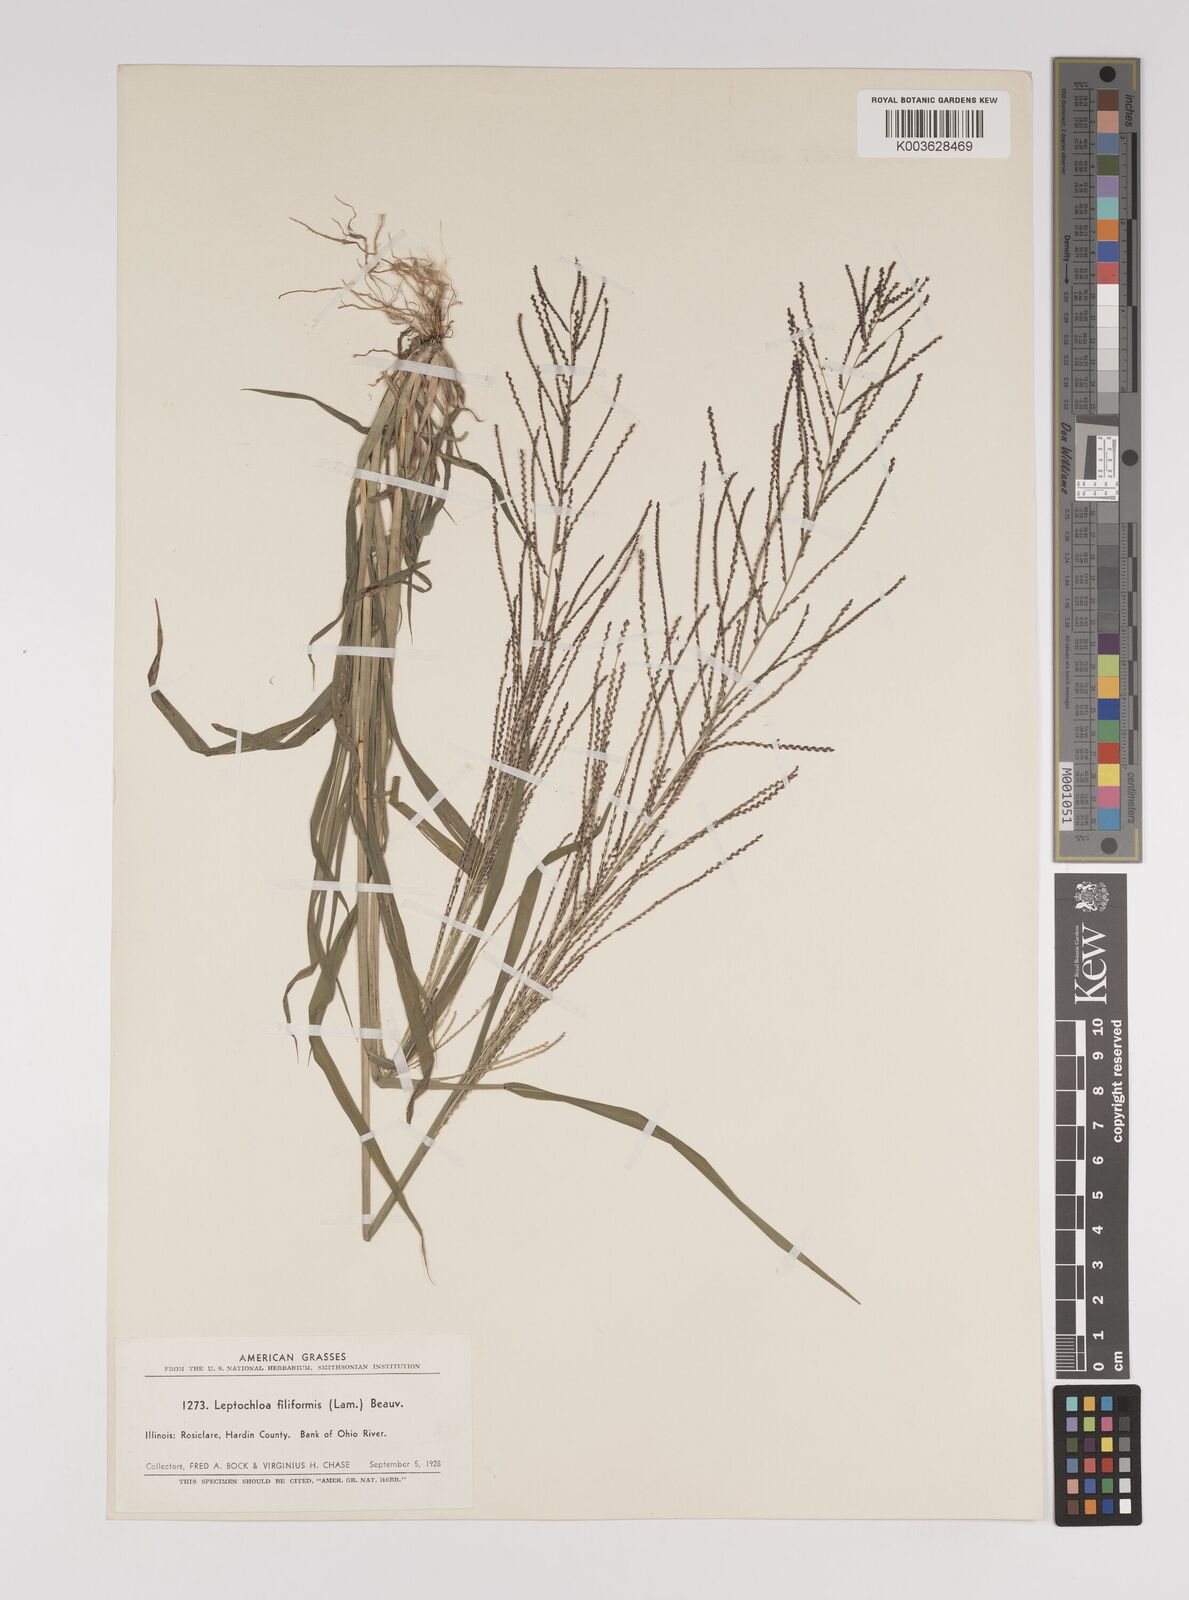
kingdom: Plantae
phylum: Tracheophyta
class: Liliopsida
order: Poales
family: Poaceae
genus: Leptochloa
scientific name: Leptochloa panicea
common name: Mucronate sprangletop
